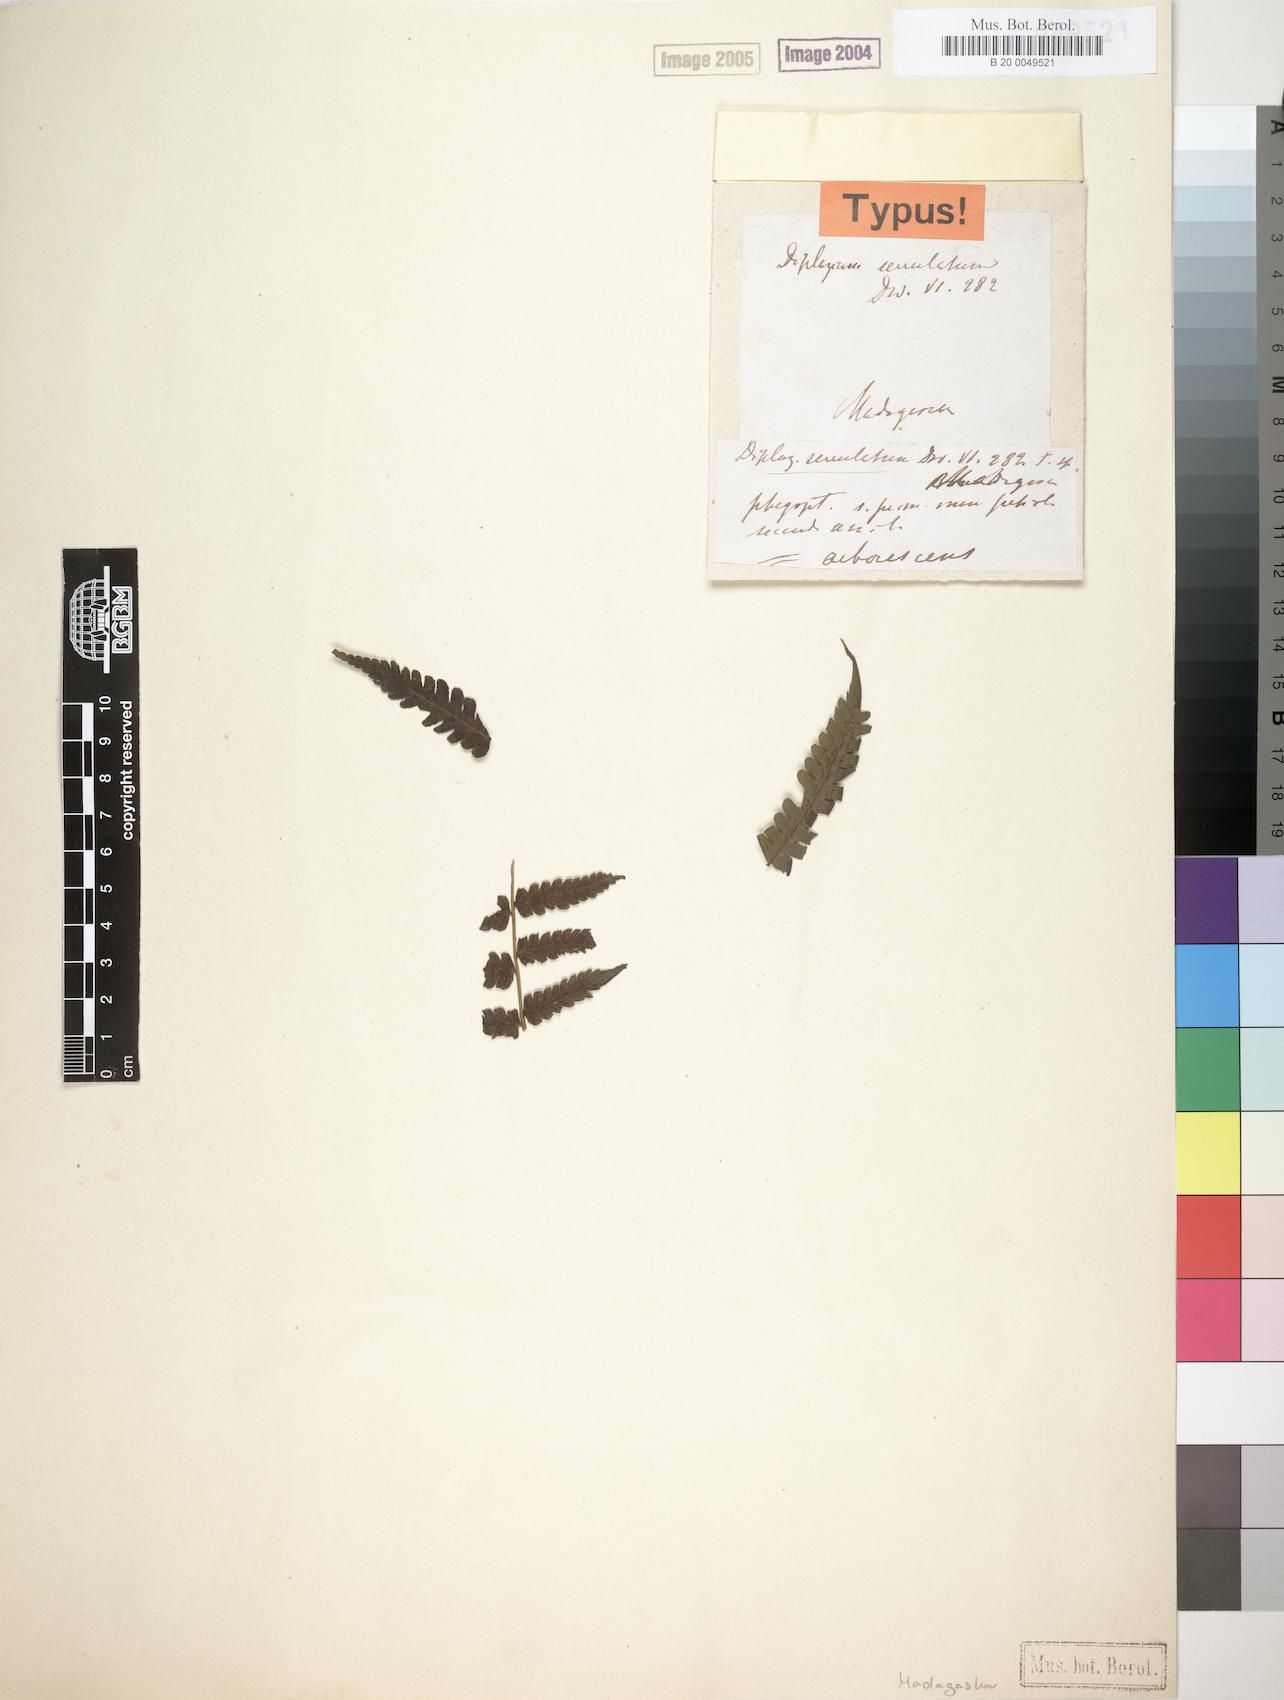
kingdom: Plantae
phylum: Tracheophyta
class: Polypodiopsida
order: Polypodiales
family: Athyriaceae
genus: Diplazium
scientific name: Diplazium arborescens
